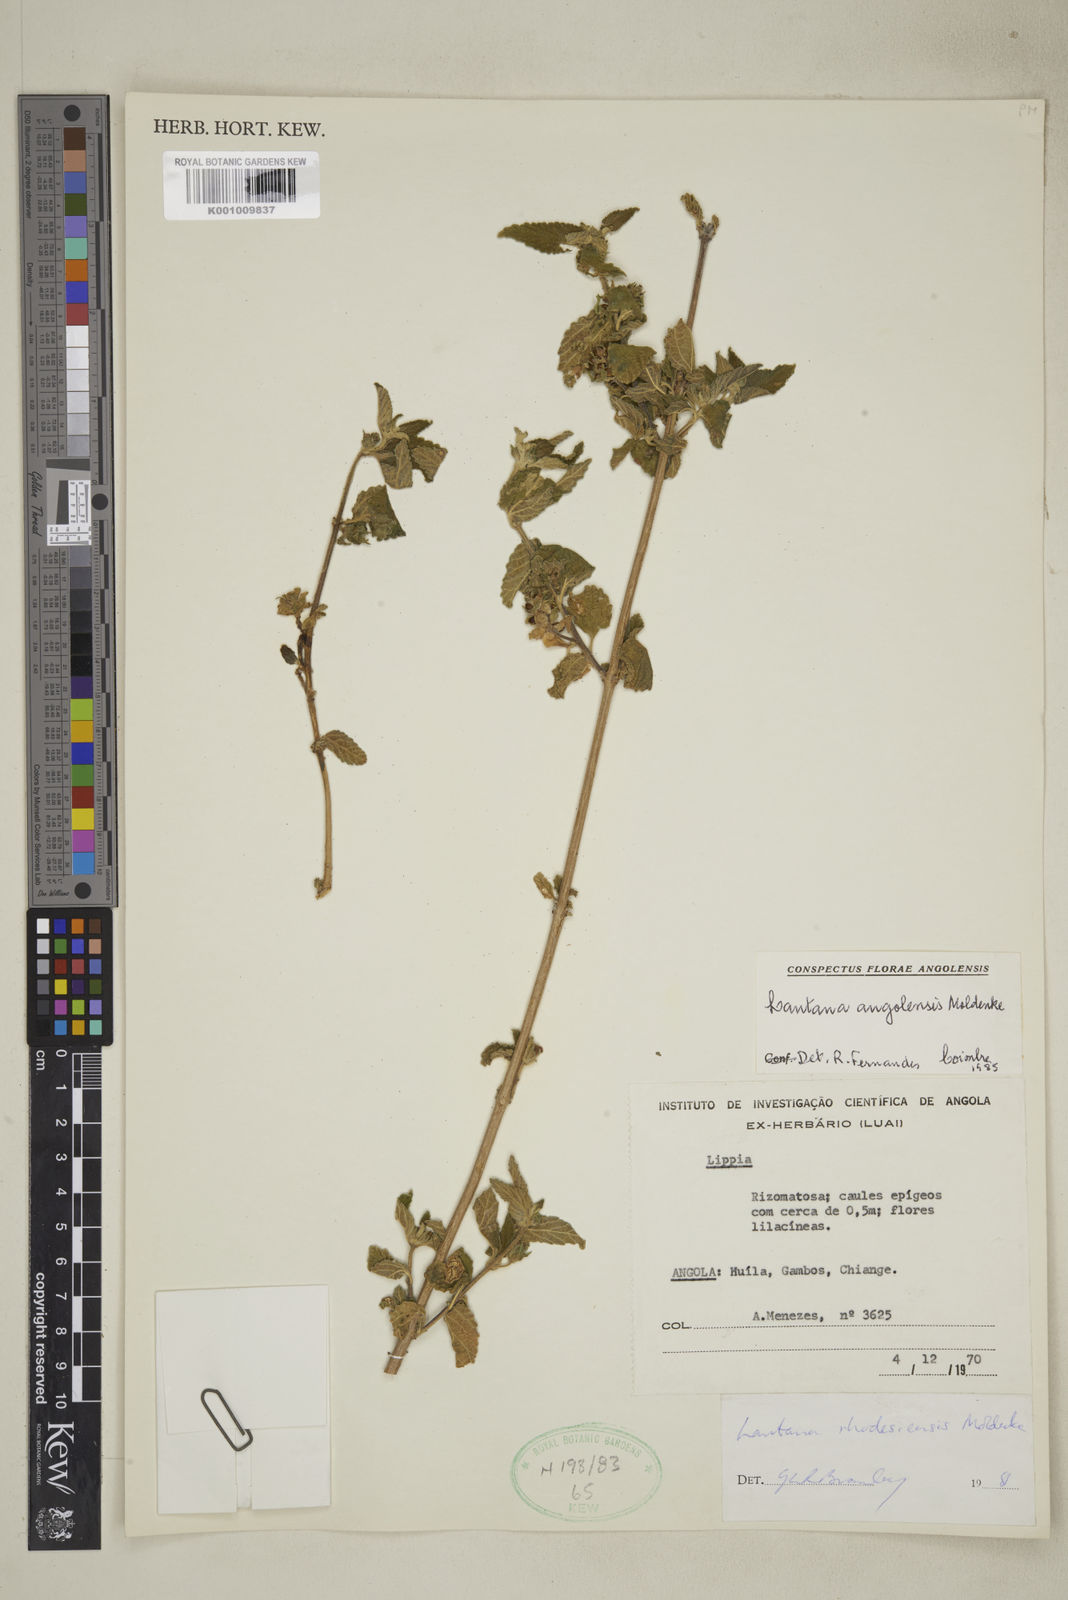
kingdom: Plantae
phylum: Tracheophyta
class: Magnoliopsida
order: Lamiales
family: Verbenaceae
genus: Lantana
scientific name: Lantana angolensis
